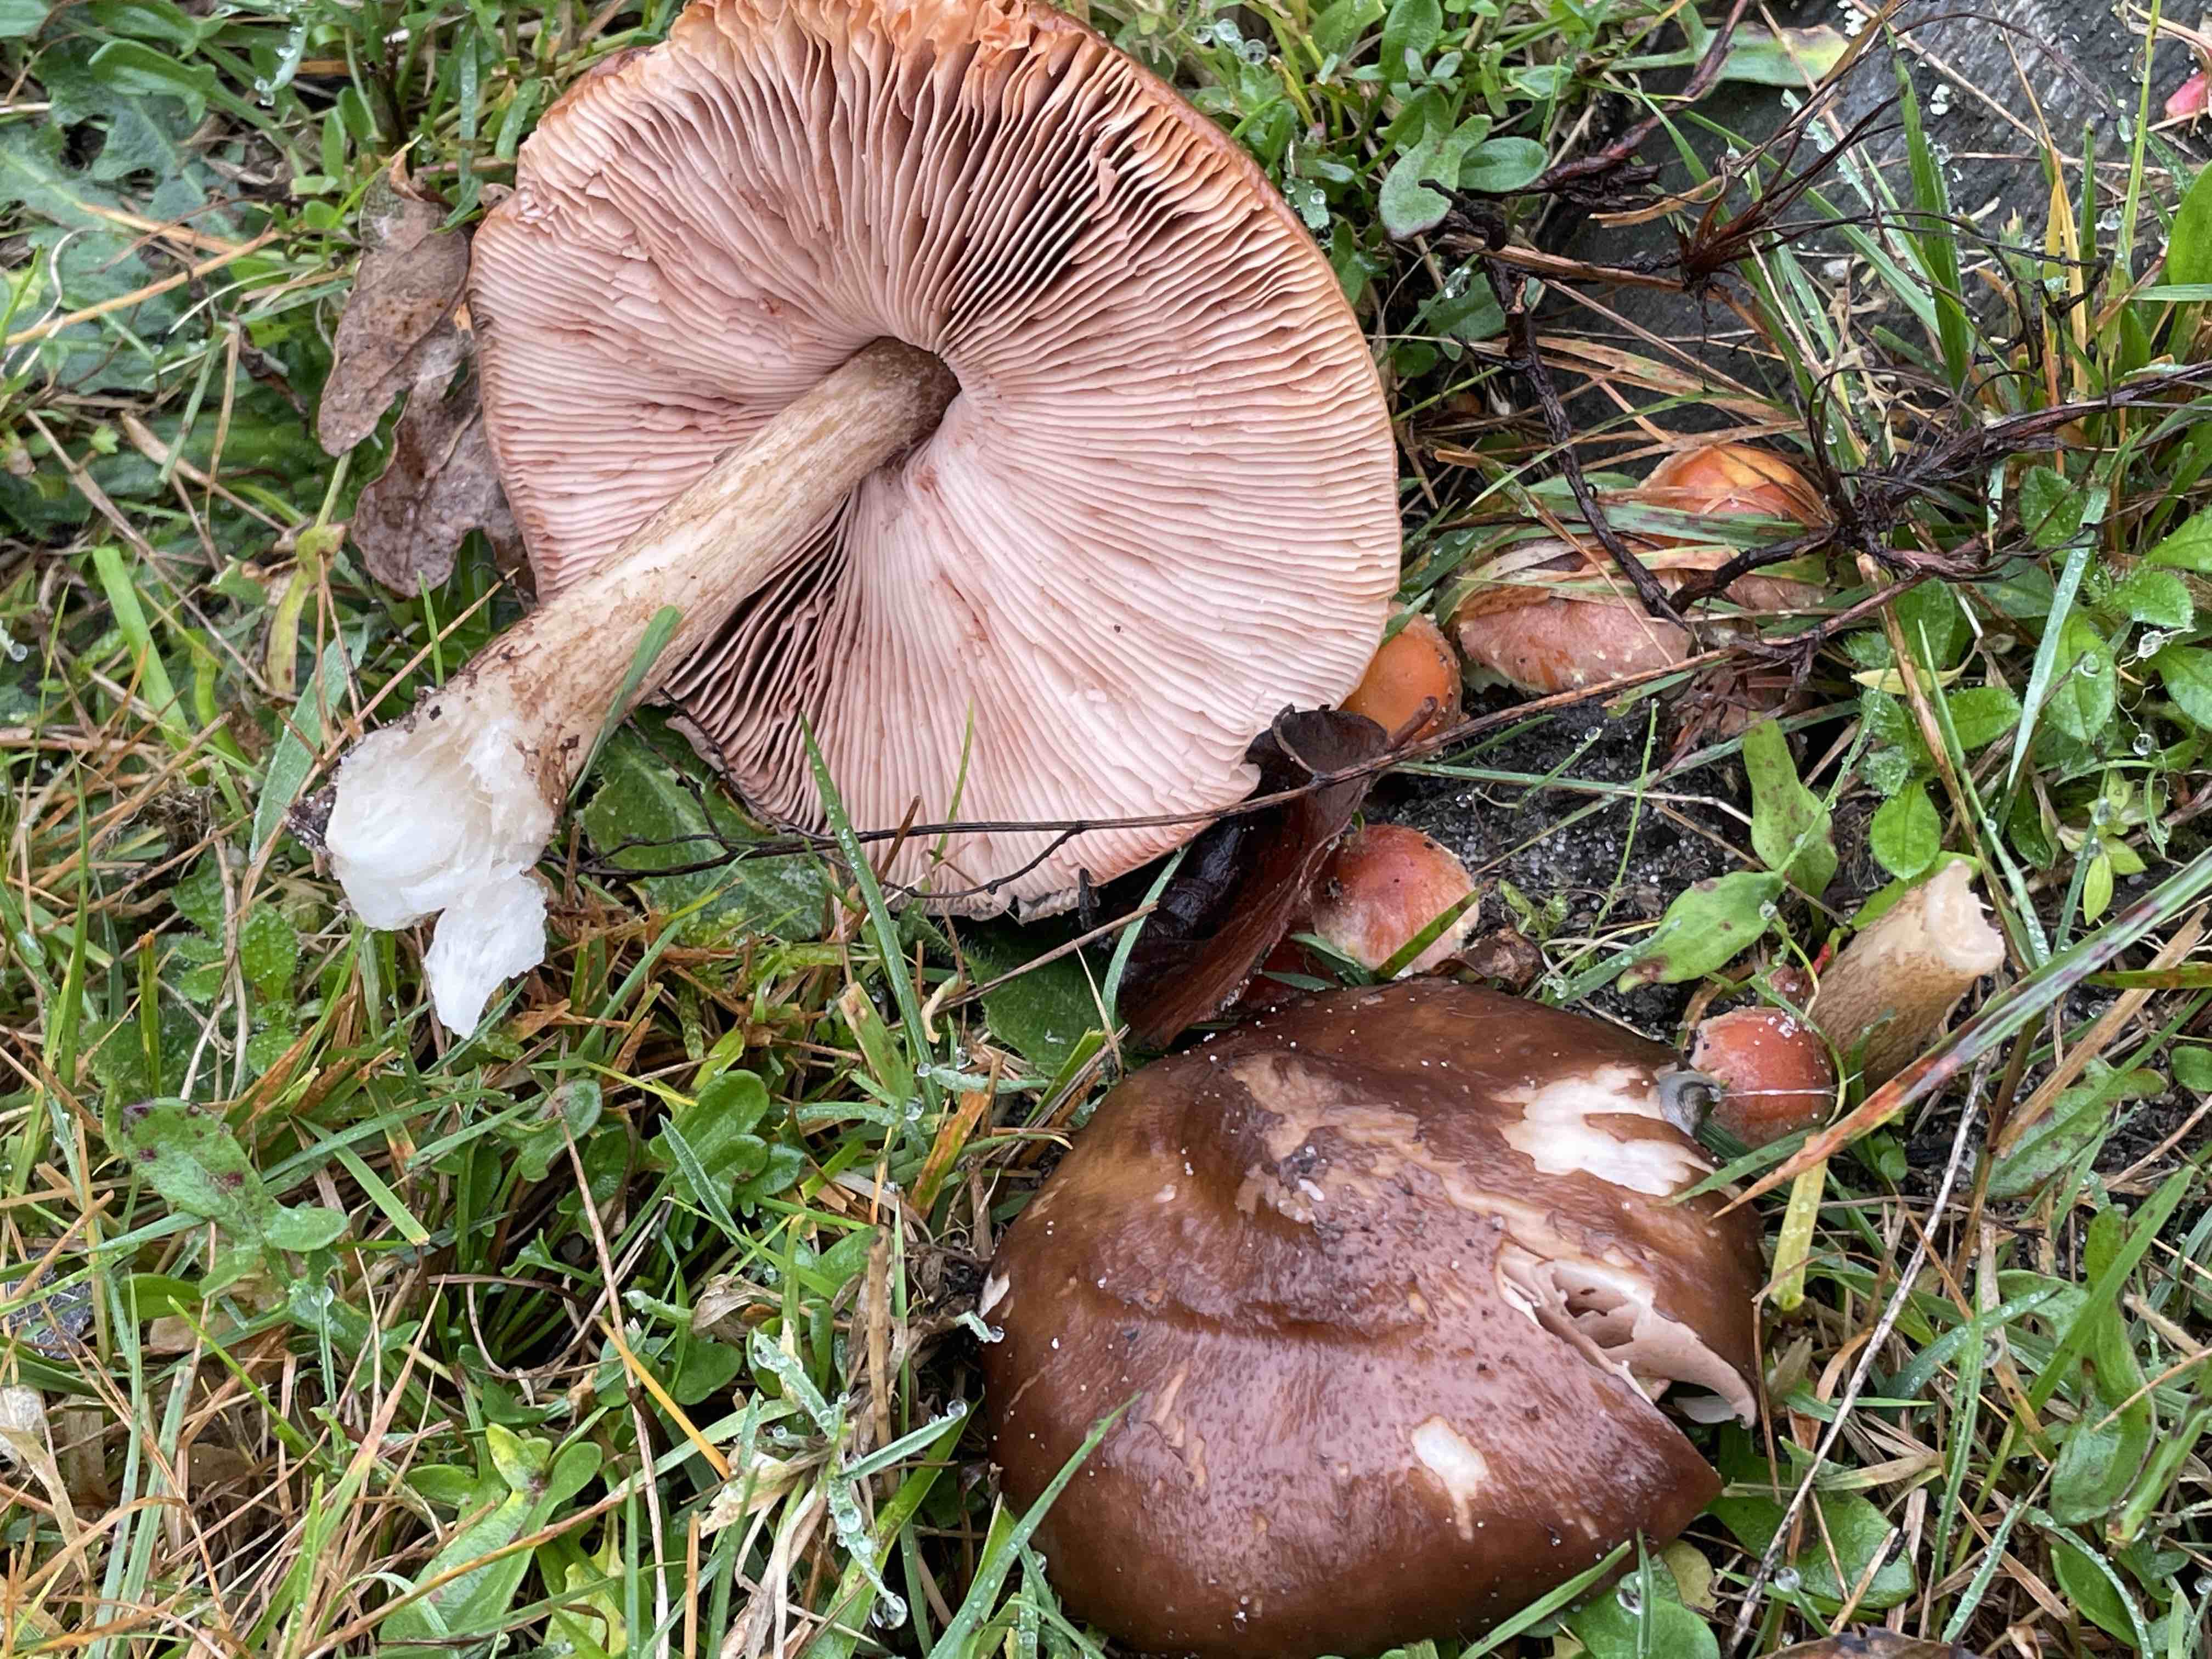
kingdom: Fungi
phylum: Basidiomycota
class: Agaricomycetes
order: Agaricales
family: Pluteaceae
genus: Pluteus
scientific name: Pluteus cervinus
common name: sodfarvet skærmhat
